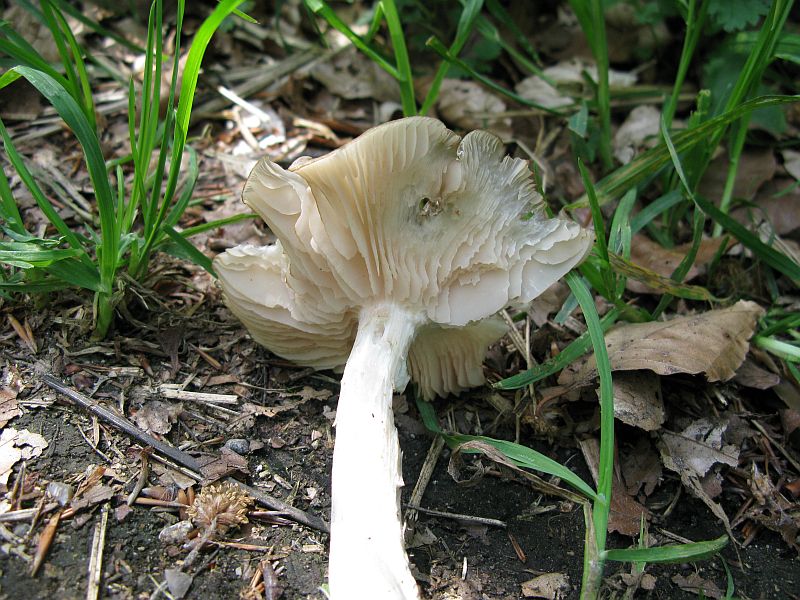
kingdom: Fungi
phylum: Basidiomycota
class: Agaricomycetes
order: Agaricales
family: Entolomataceae
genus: Entoloma
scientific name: Entoloma clypeatum
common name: flammet rødblad
